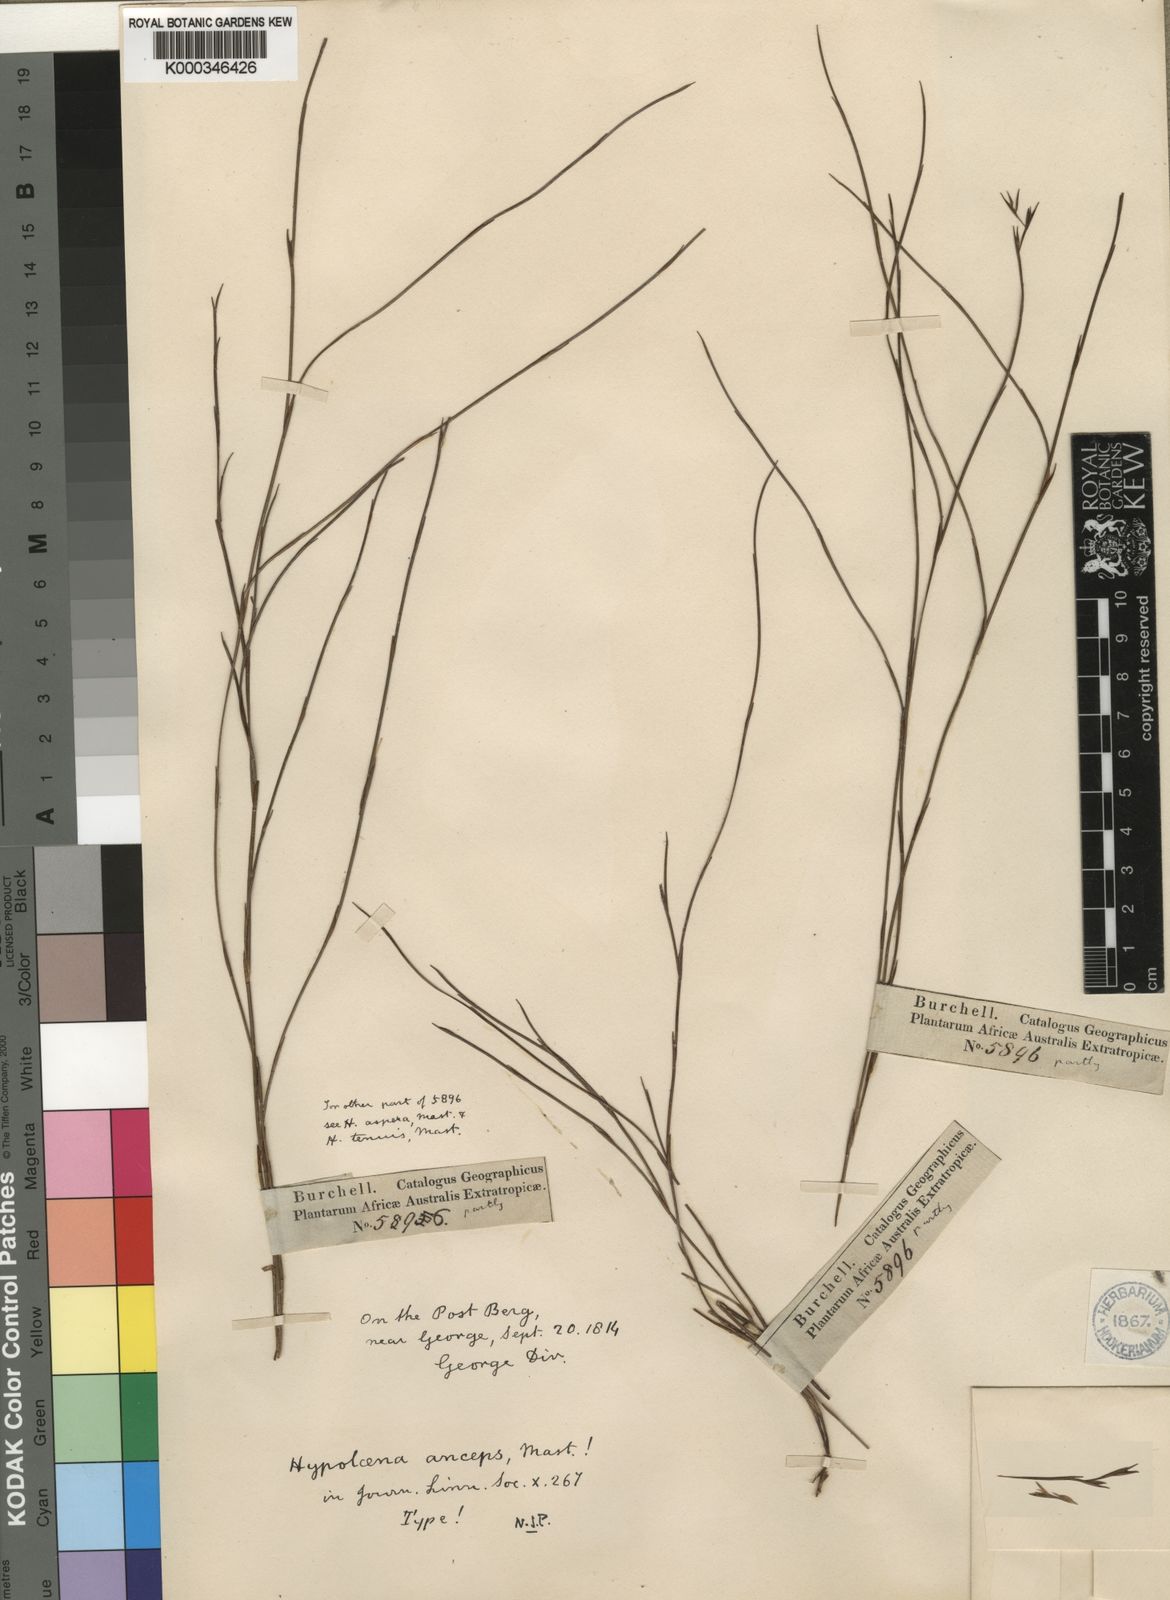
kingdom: Plantae
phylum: Tracheophyta
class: Liliopsida
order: Poales
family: Restionaceae
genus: Platycaulos
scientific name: Platycaulos anceps
